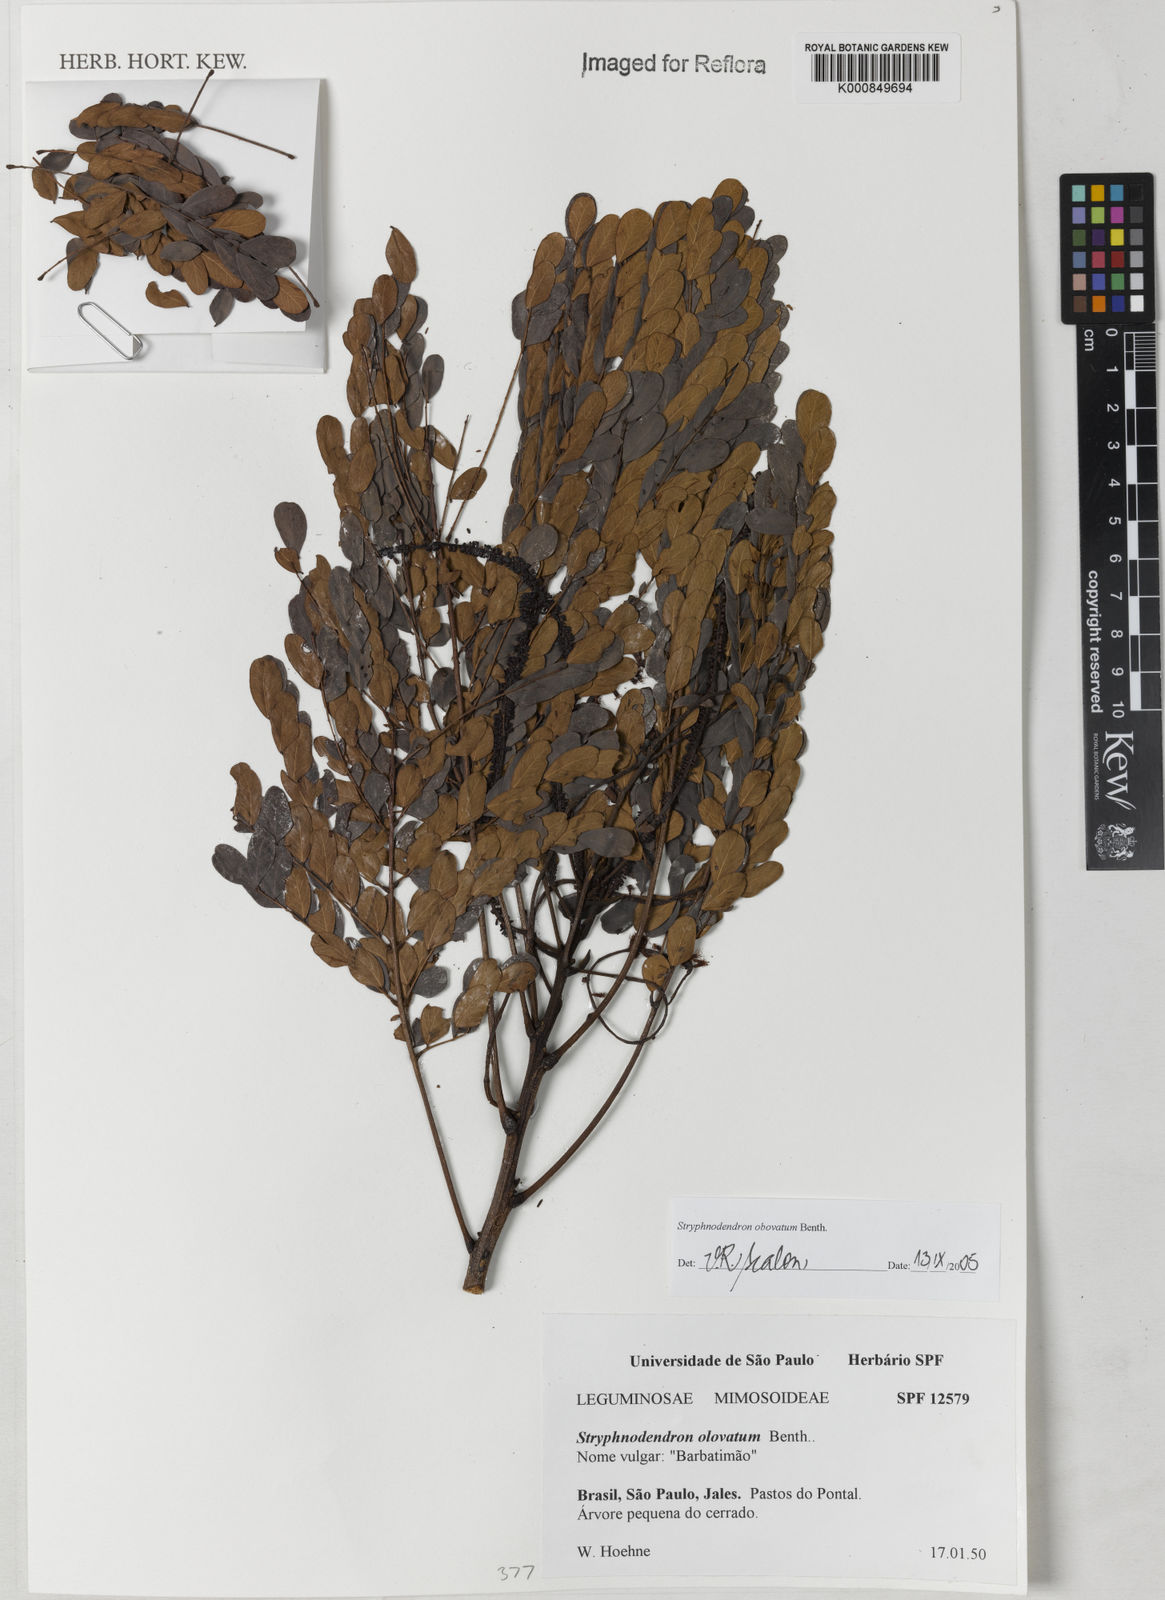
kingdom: Plantae
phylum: Tracheophyta
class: Magnoliopsida
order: Fabales
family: Fabaceae
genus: Stryphnodendron
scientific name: Stryphnodendron rotundifolium
